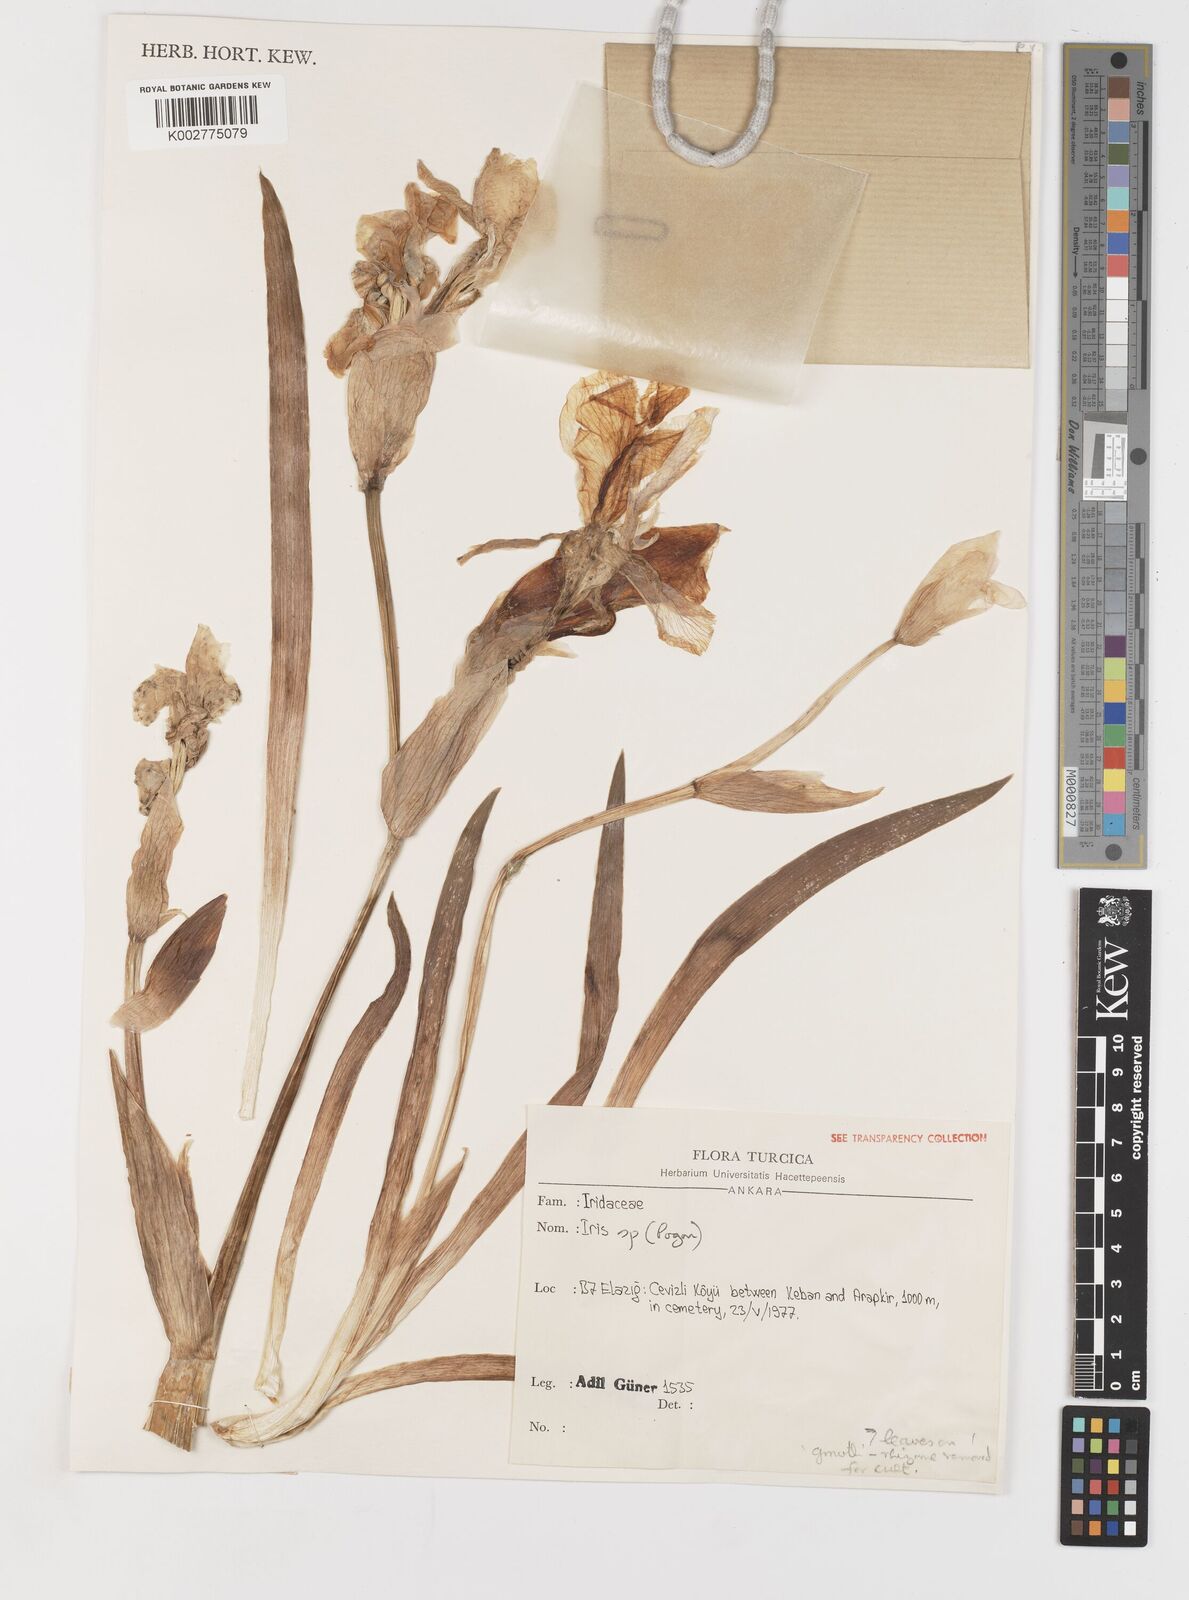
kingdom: Plantae
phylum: Tracheophyta
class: Liliopsida
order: Asparagales
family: Iridaceae
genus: Iris
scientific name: Iris germanica
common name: German iris
